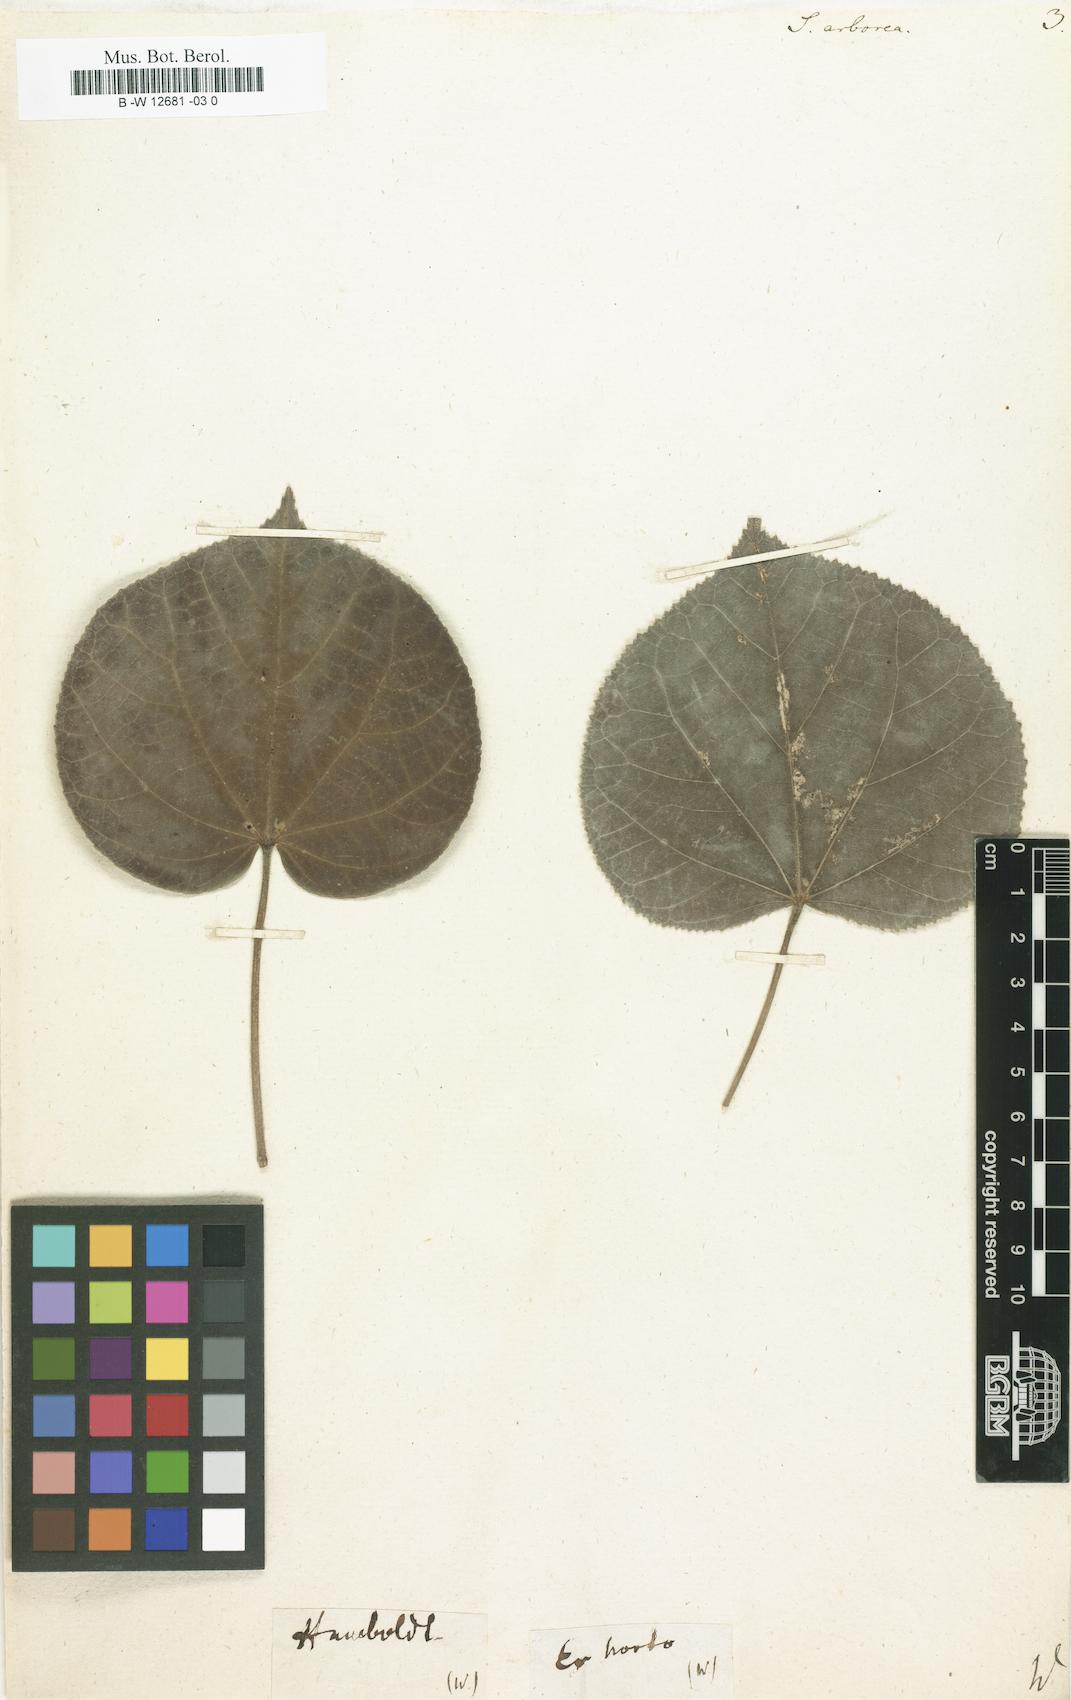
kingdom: Plantae
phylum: Tracheophyta
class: Magnoliopsida
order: Malvales
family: Malvaceae
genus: Callianthe
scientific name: Callianthe peruviana
